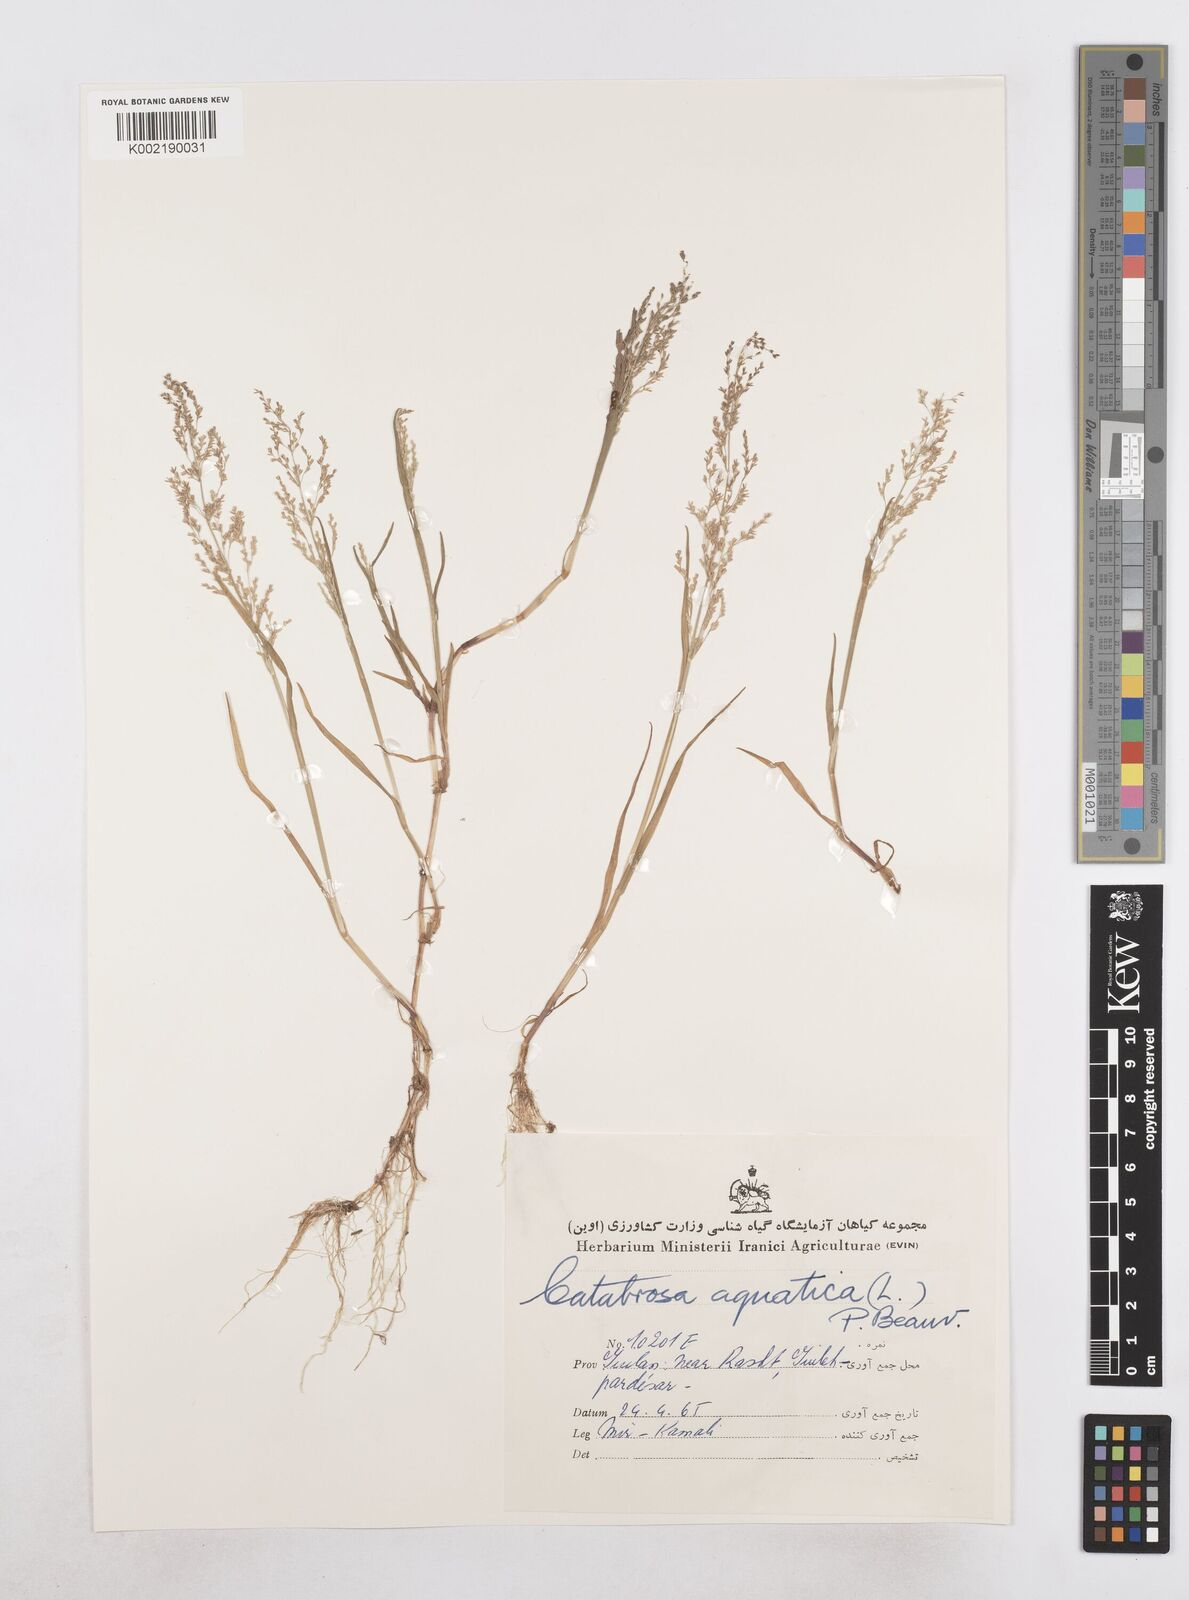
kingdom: Plantae
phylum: Tracheophyta
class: Liliopsida
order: Poales
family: Poaceae
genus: Catabrosa
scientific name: Catabrosa aquatica
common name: Whorl-grass
